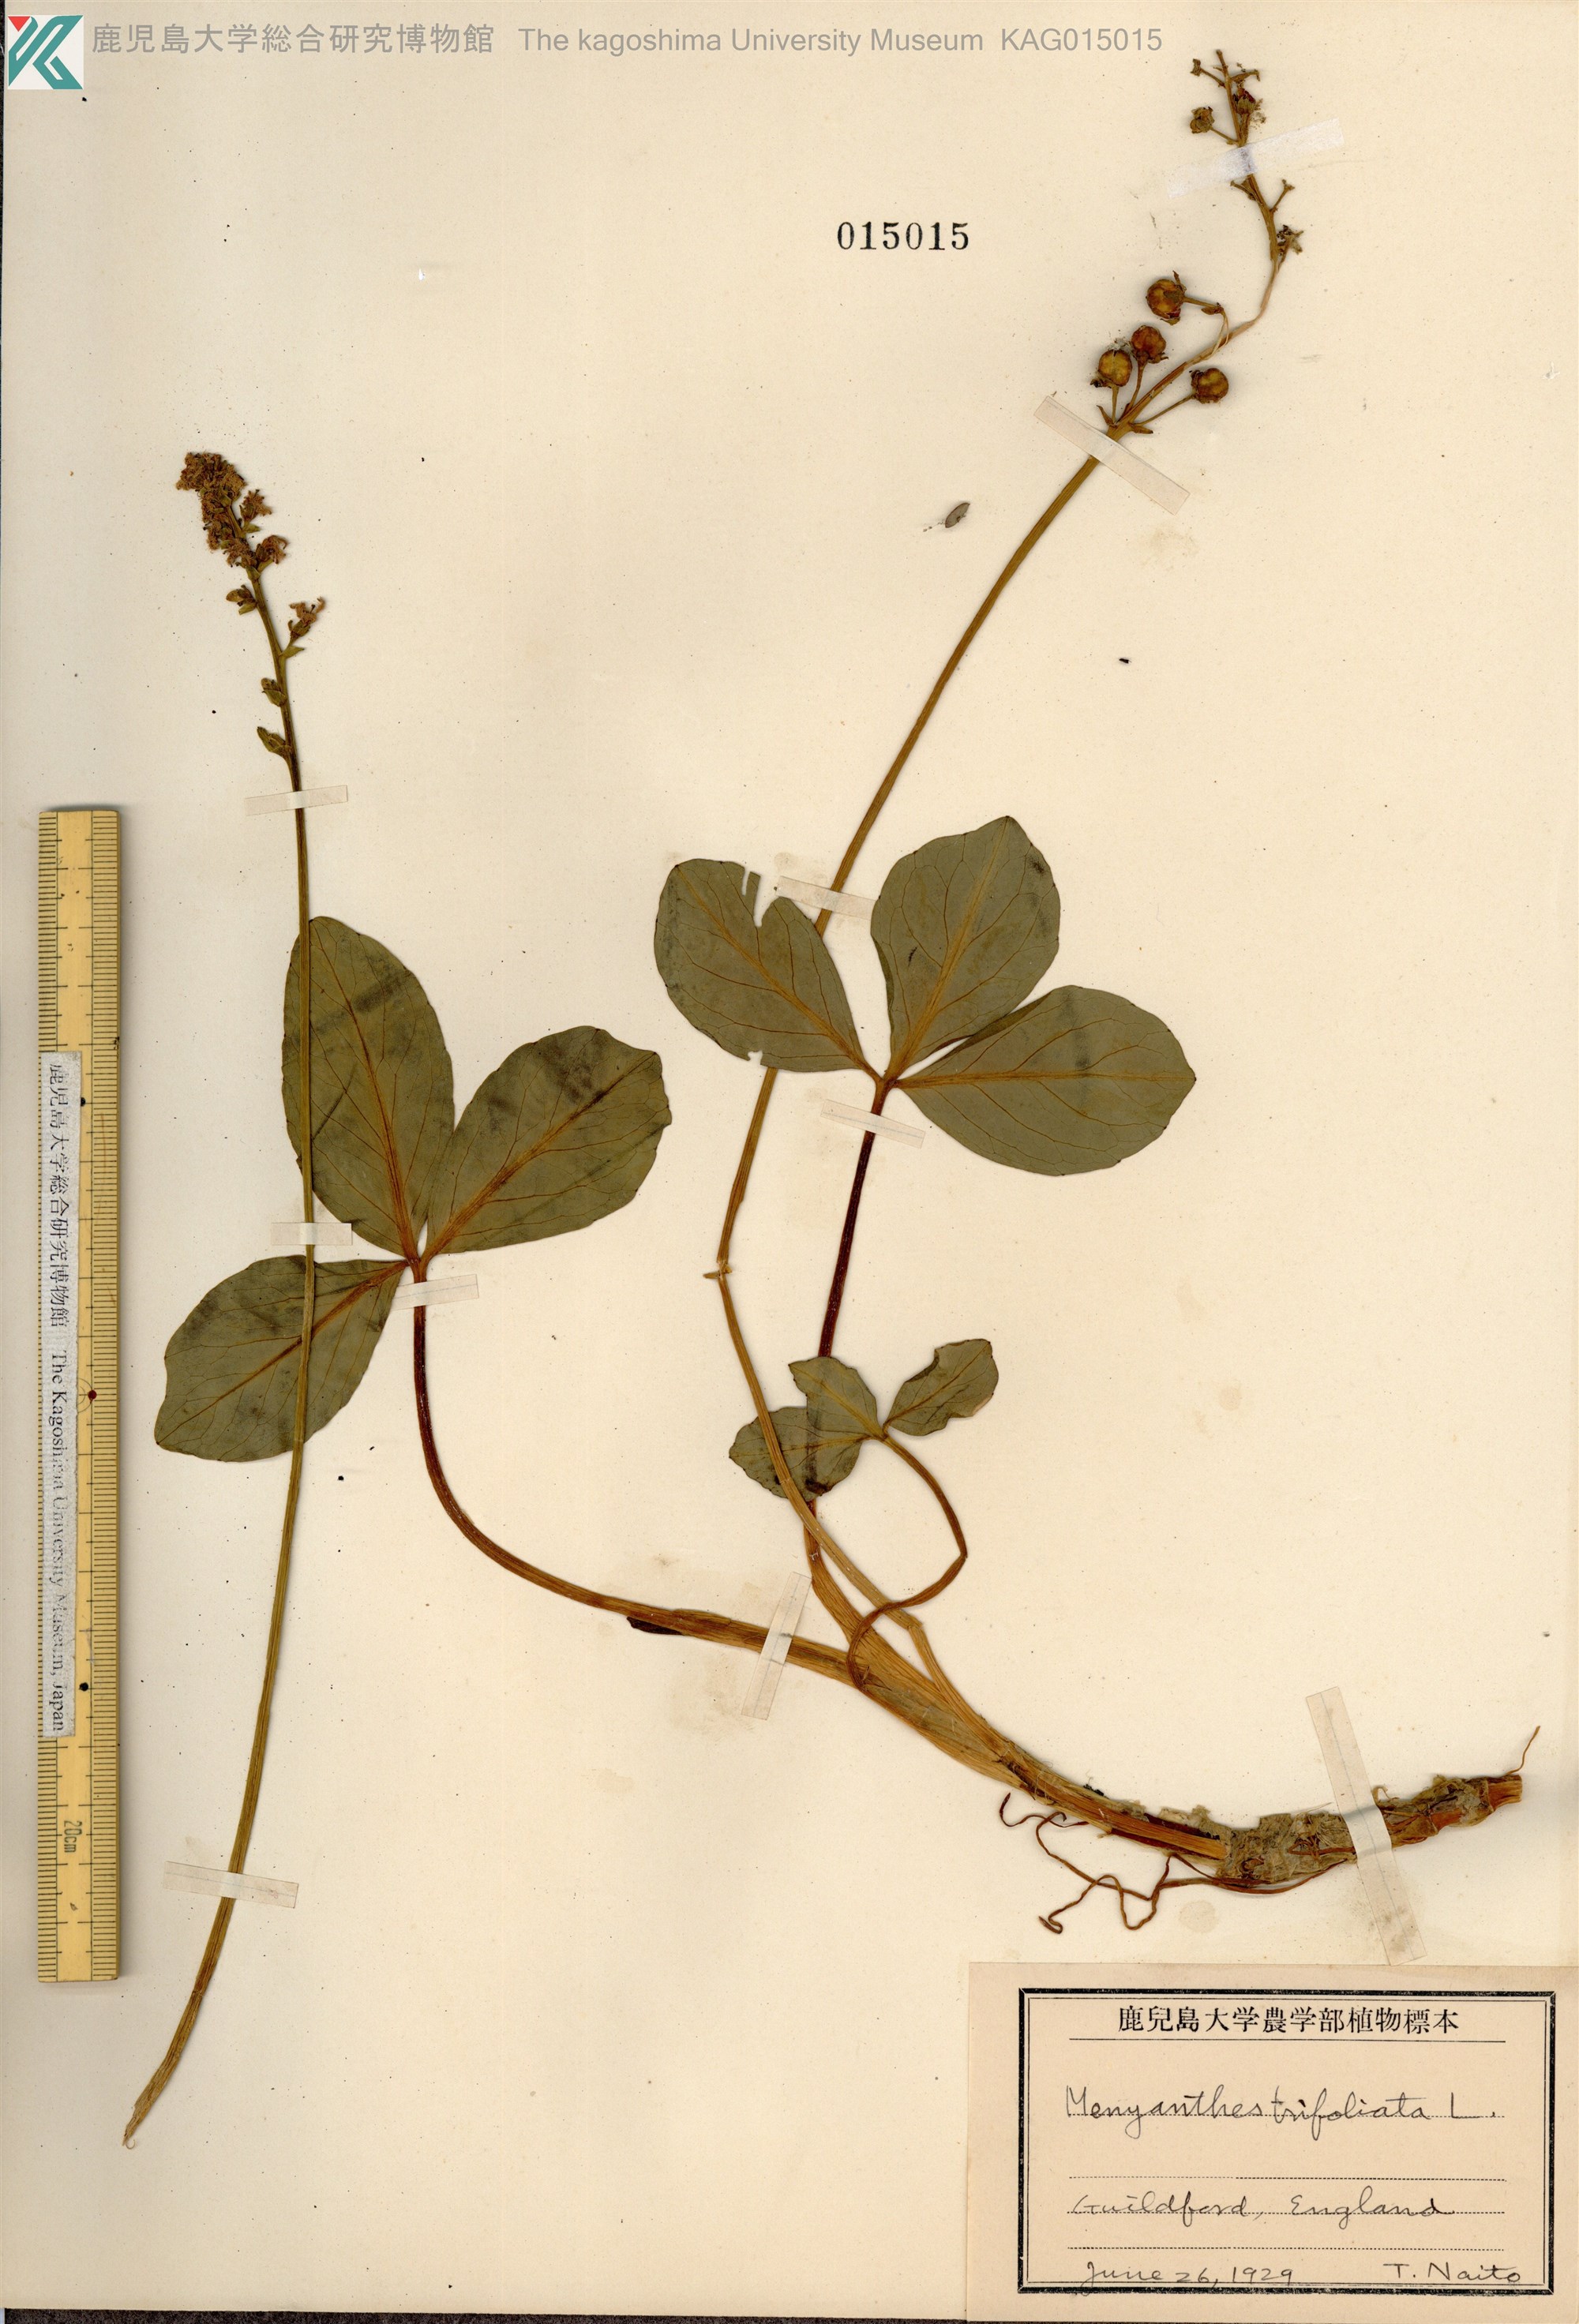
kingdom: Plantae
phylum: Tracheophyta
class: Magnoliopsida
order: Asterales
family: Menyanthaceae
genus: Menyanthes
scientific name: Menyanthes trifoliata
